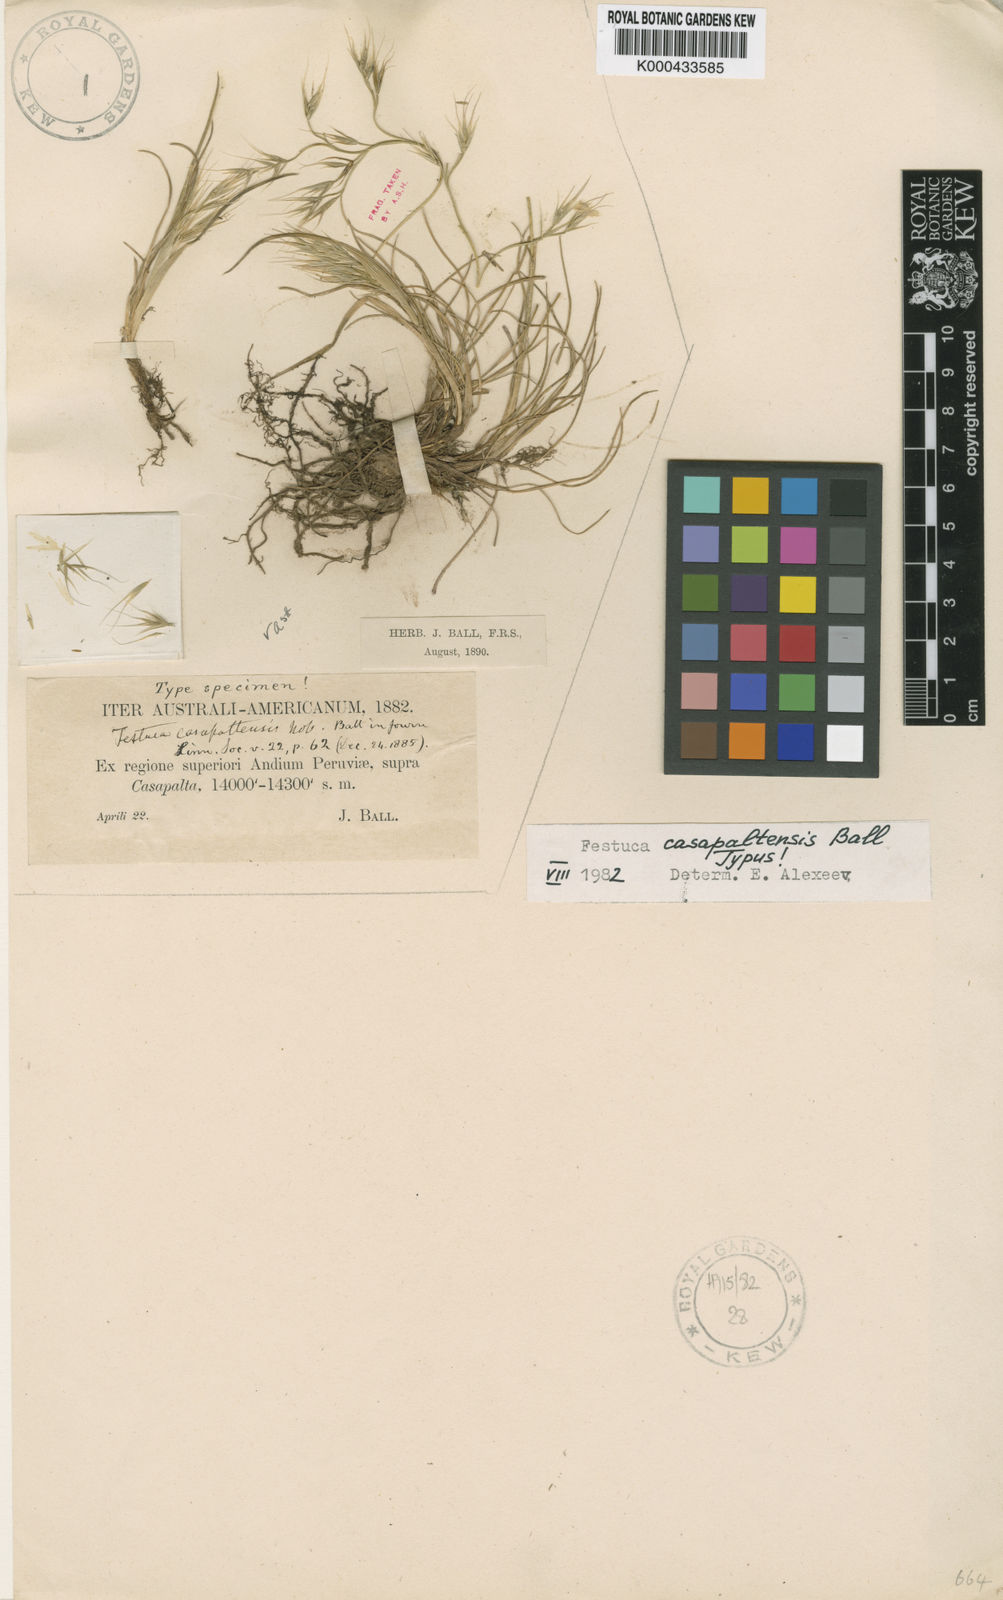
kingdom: Plantae
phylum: Tracheophyta
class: Liliopsida
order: Poales
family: Poaceae
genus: Festuca
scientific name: Festuca casapaltensis
